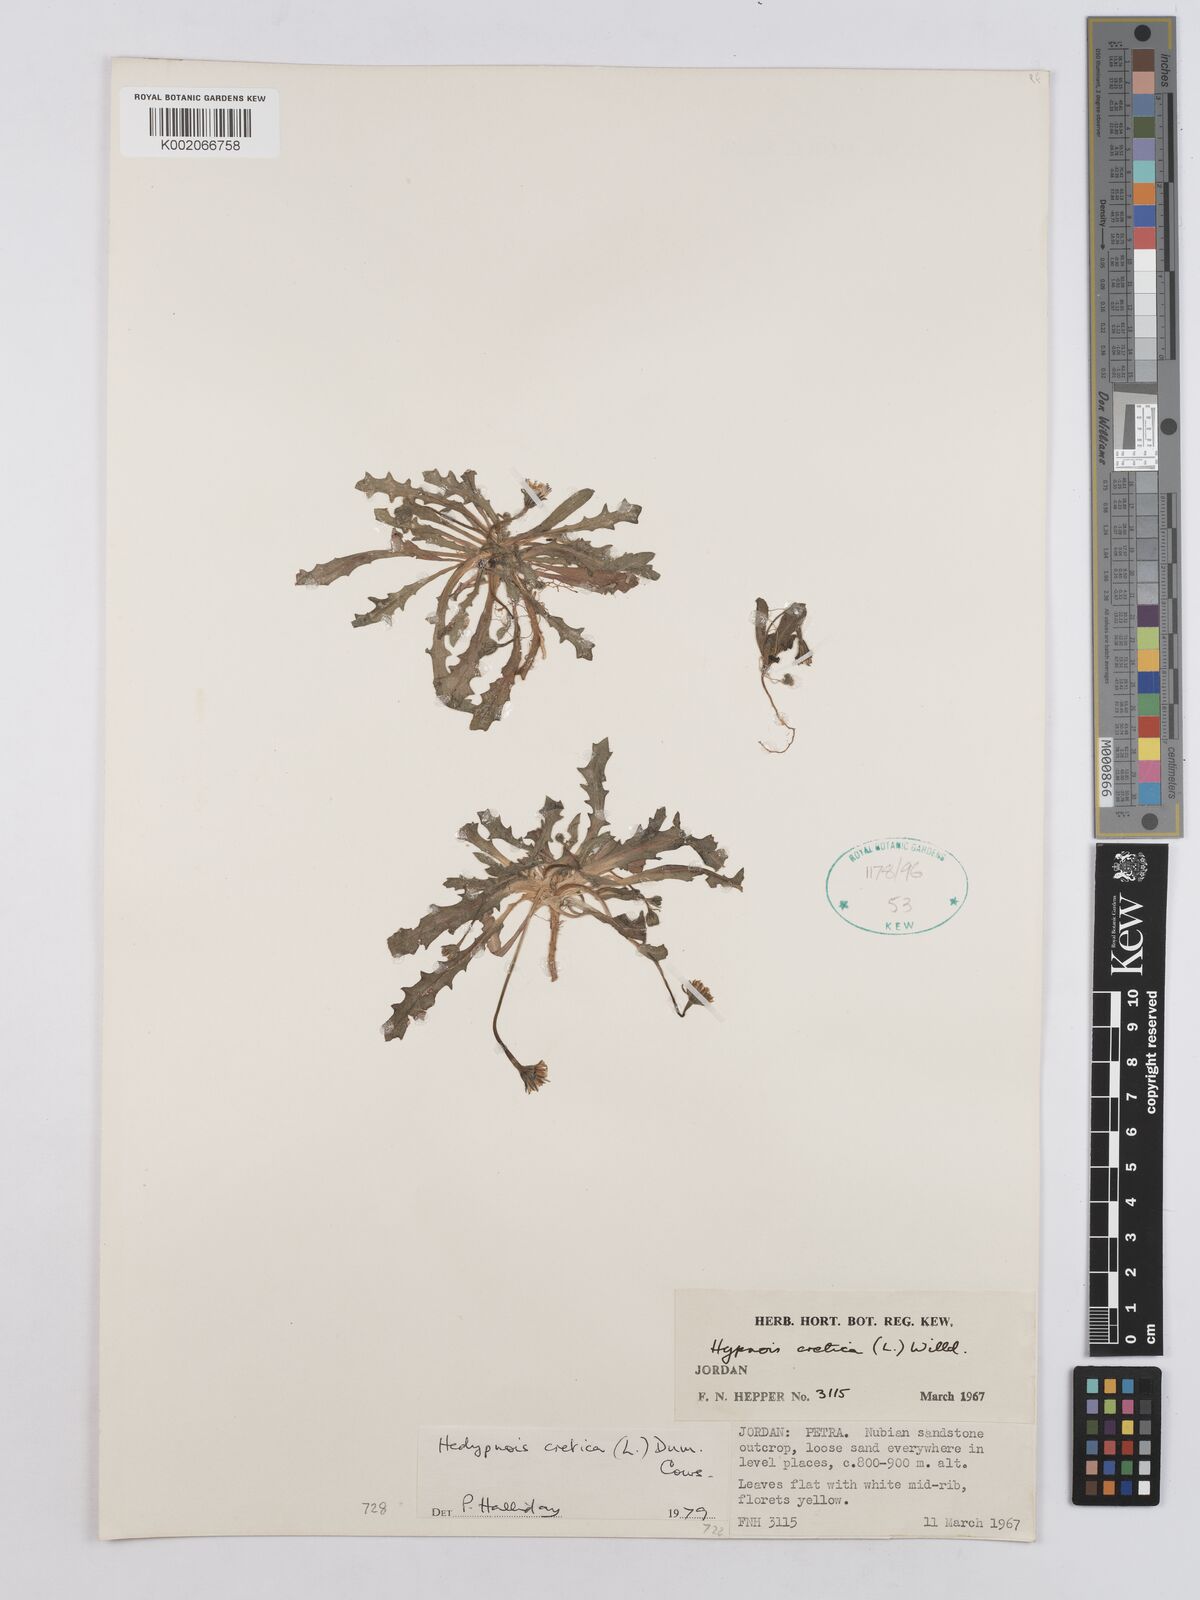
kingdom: Plantae
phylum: Tracheophyta
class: Magnoliopsida
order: Asterales
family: Asteraceae
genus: Hedypnois
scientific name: Hedypnois cretica
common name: Scaly hawkbit
